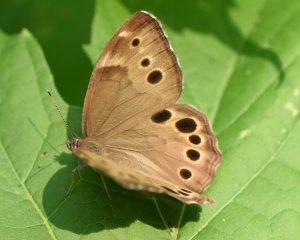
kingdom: Animalia
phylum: Arthropoda
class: Insecta
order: Lepidoptera
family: Nymphalidae
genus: Lethe
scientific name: Lethe anthedon
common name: Northern Pearly-Eye
